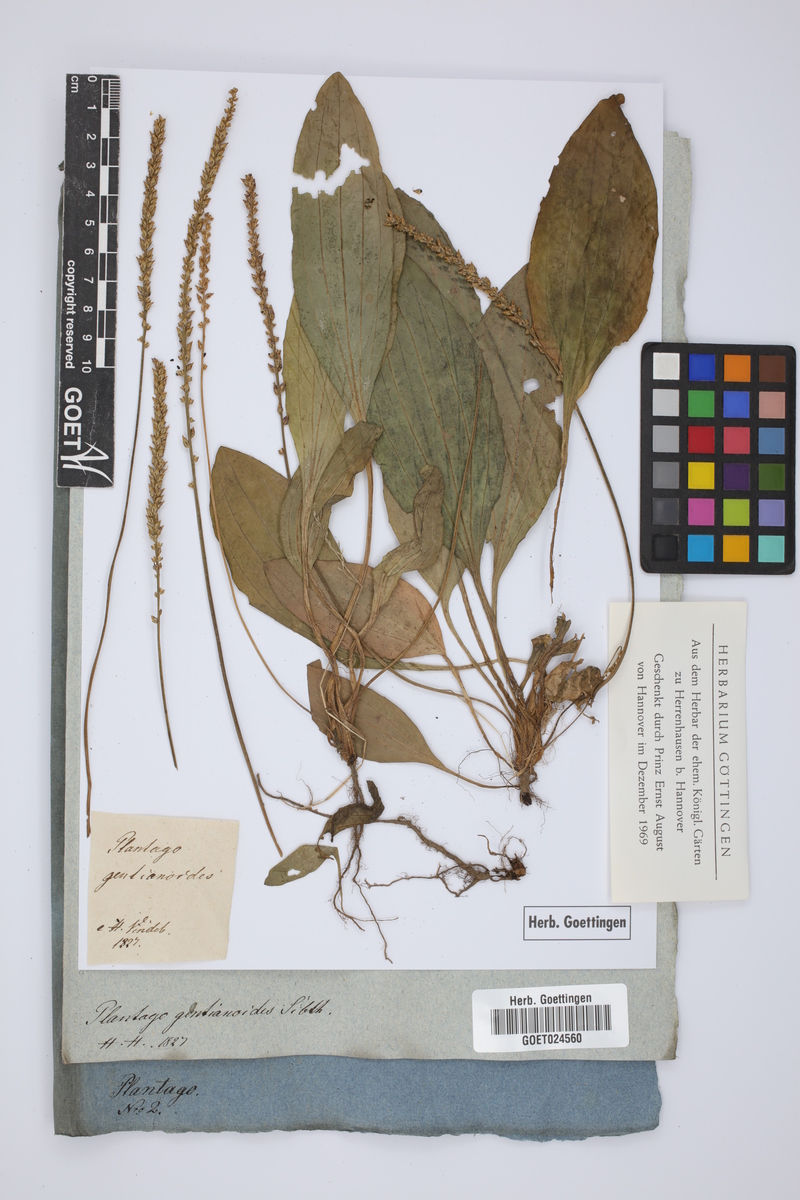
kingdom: Plantae
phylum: Tracheophyta
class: Magnoliopsida
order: Lamiales
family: Plantaginaceae
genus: Plantago
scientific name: Plantago gentianoides
